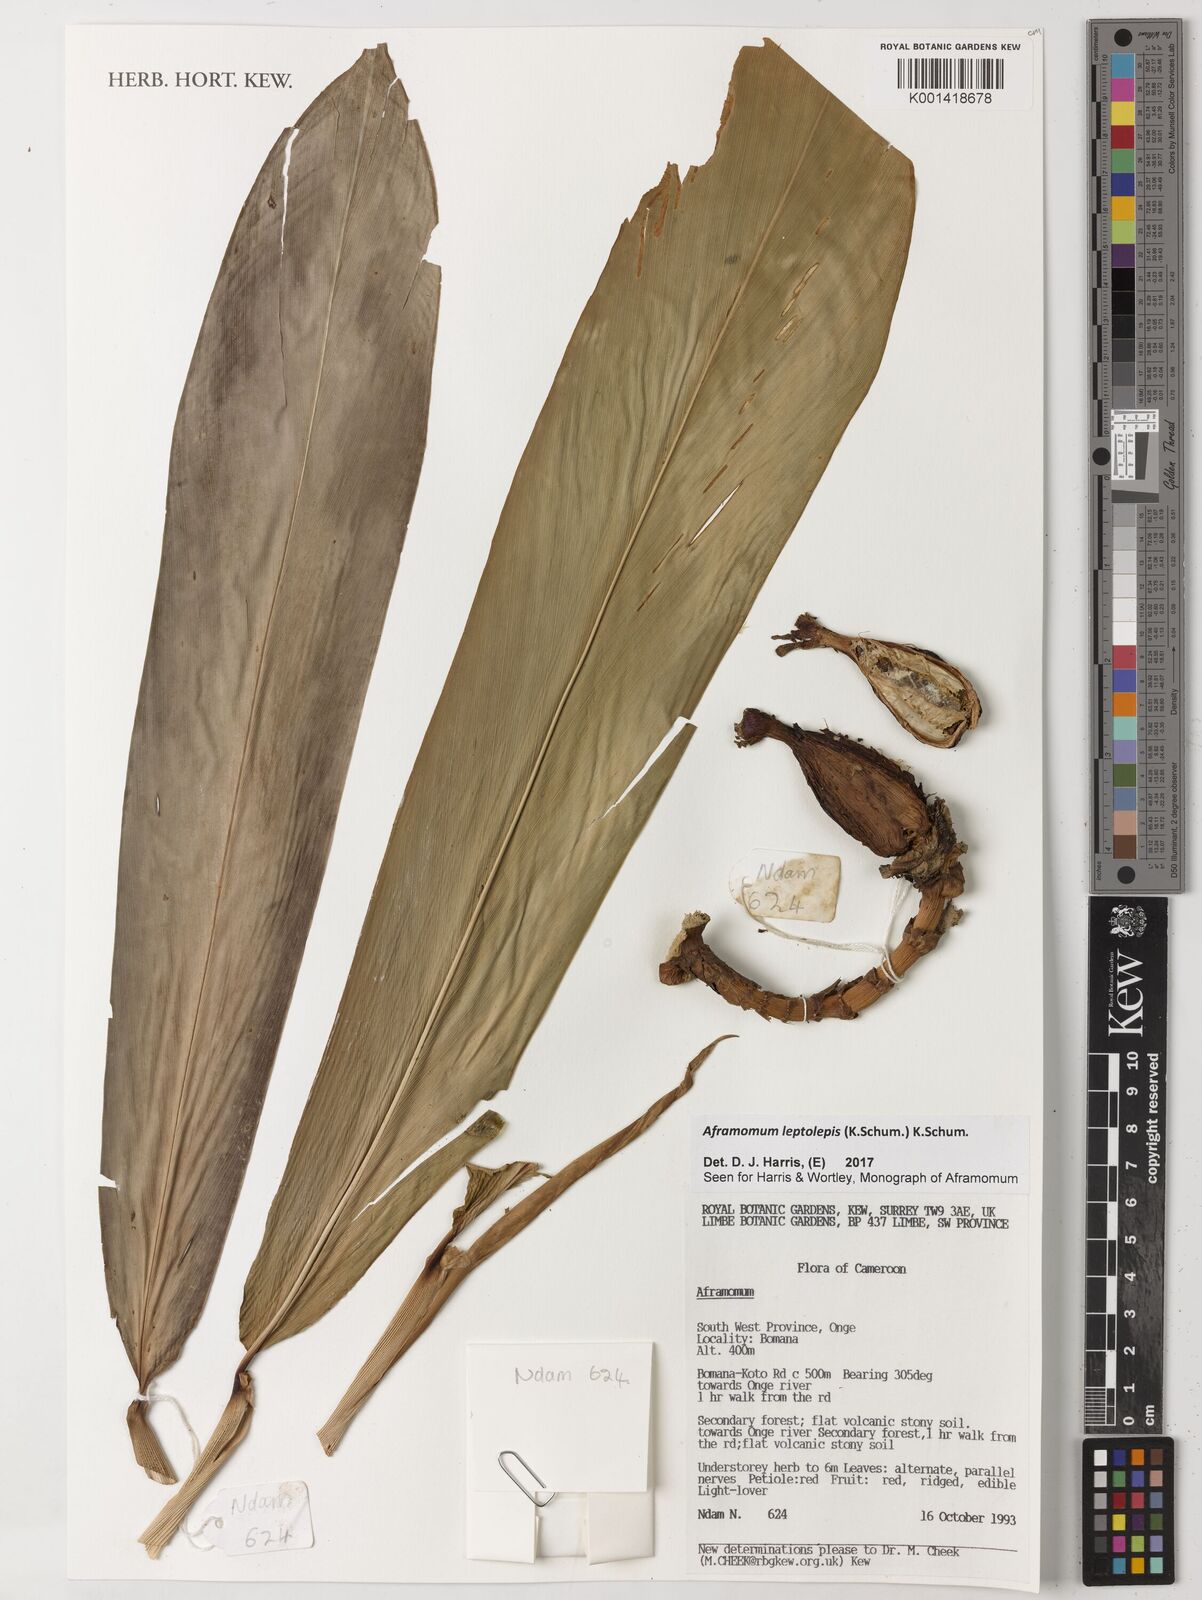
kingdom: Plantae
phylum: Tracheophyta
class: Liliopsida
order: Zingiberales
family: Zingiberaceae
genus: Aframomum
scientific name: Aframomum leptolepis
